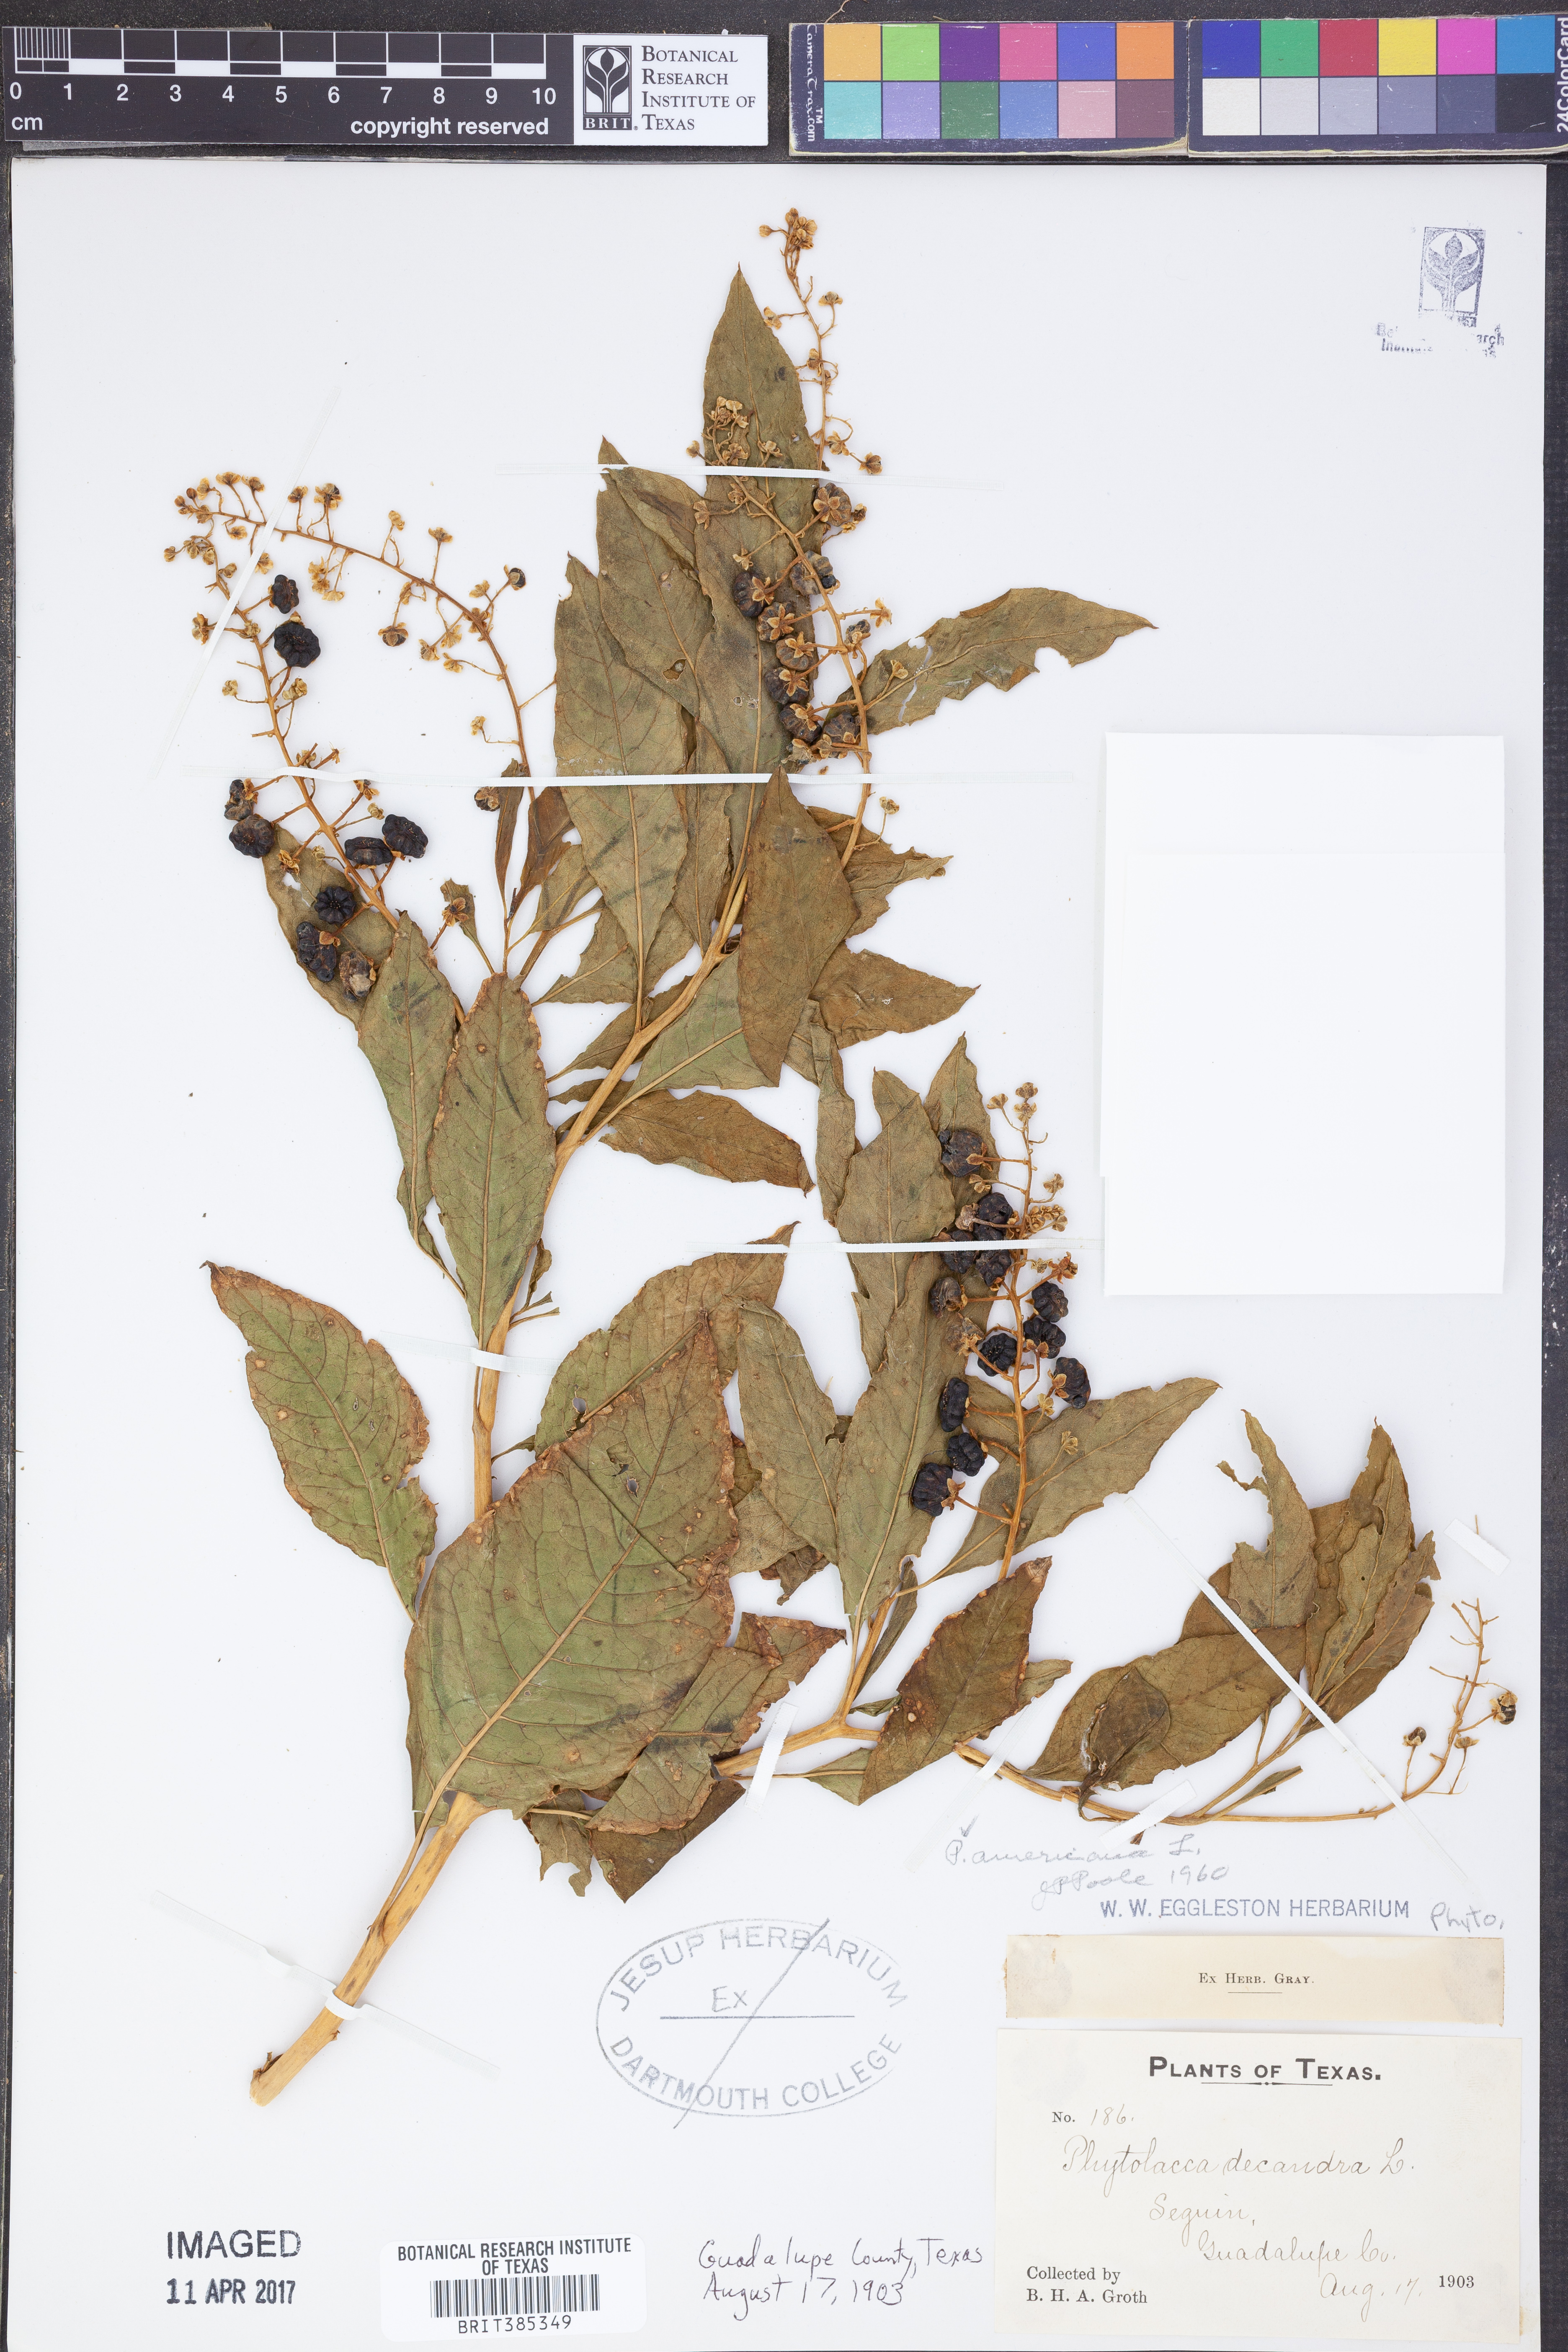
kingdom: Plantae
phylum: Tracheophyta
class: Magnoliopsida
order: Caryophyllales
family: Phytolaccaceae
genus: Phytolacca
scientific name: Phytolacca americana
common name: American pokeweed
